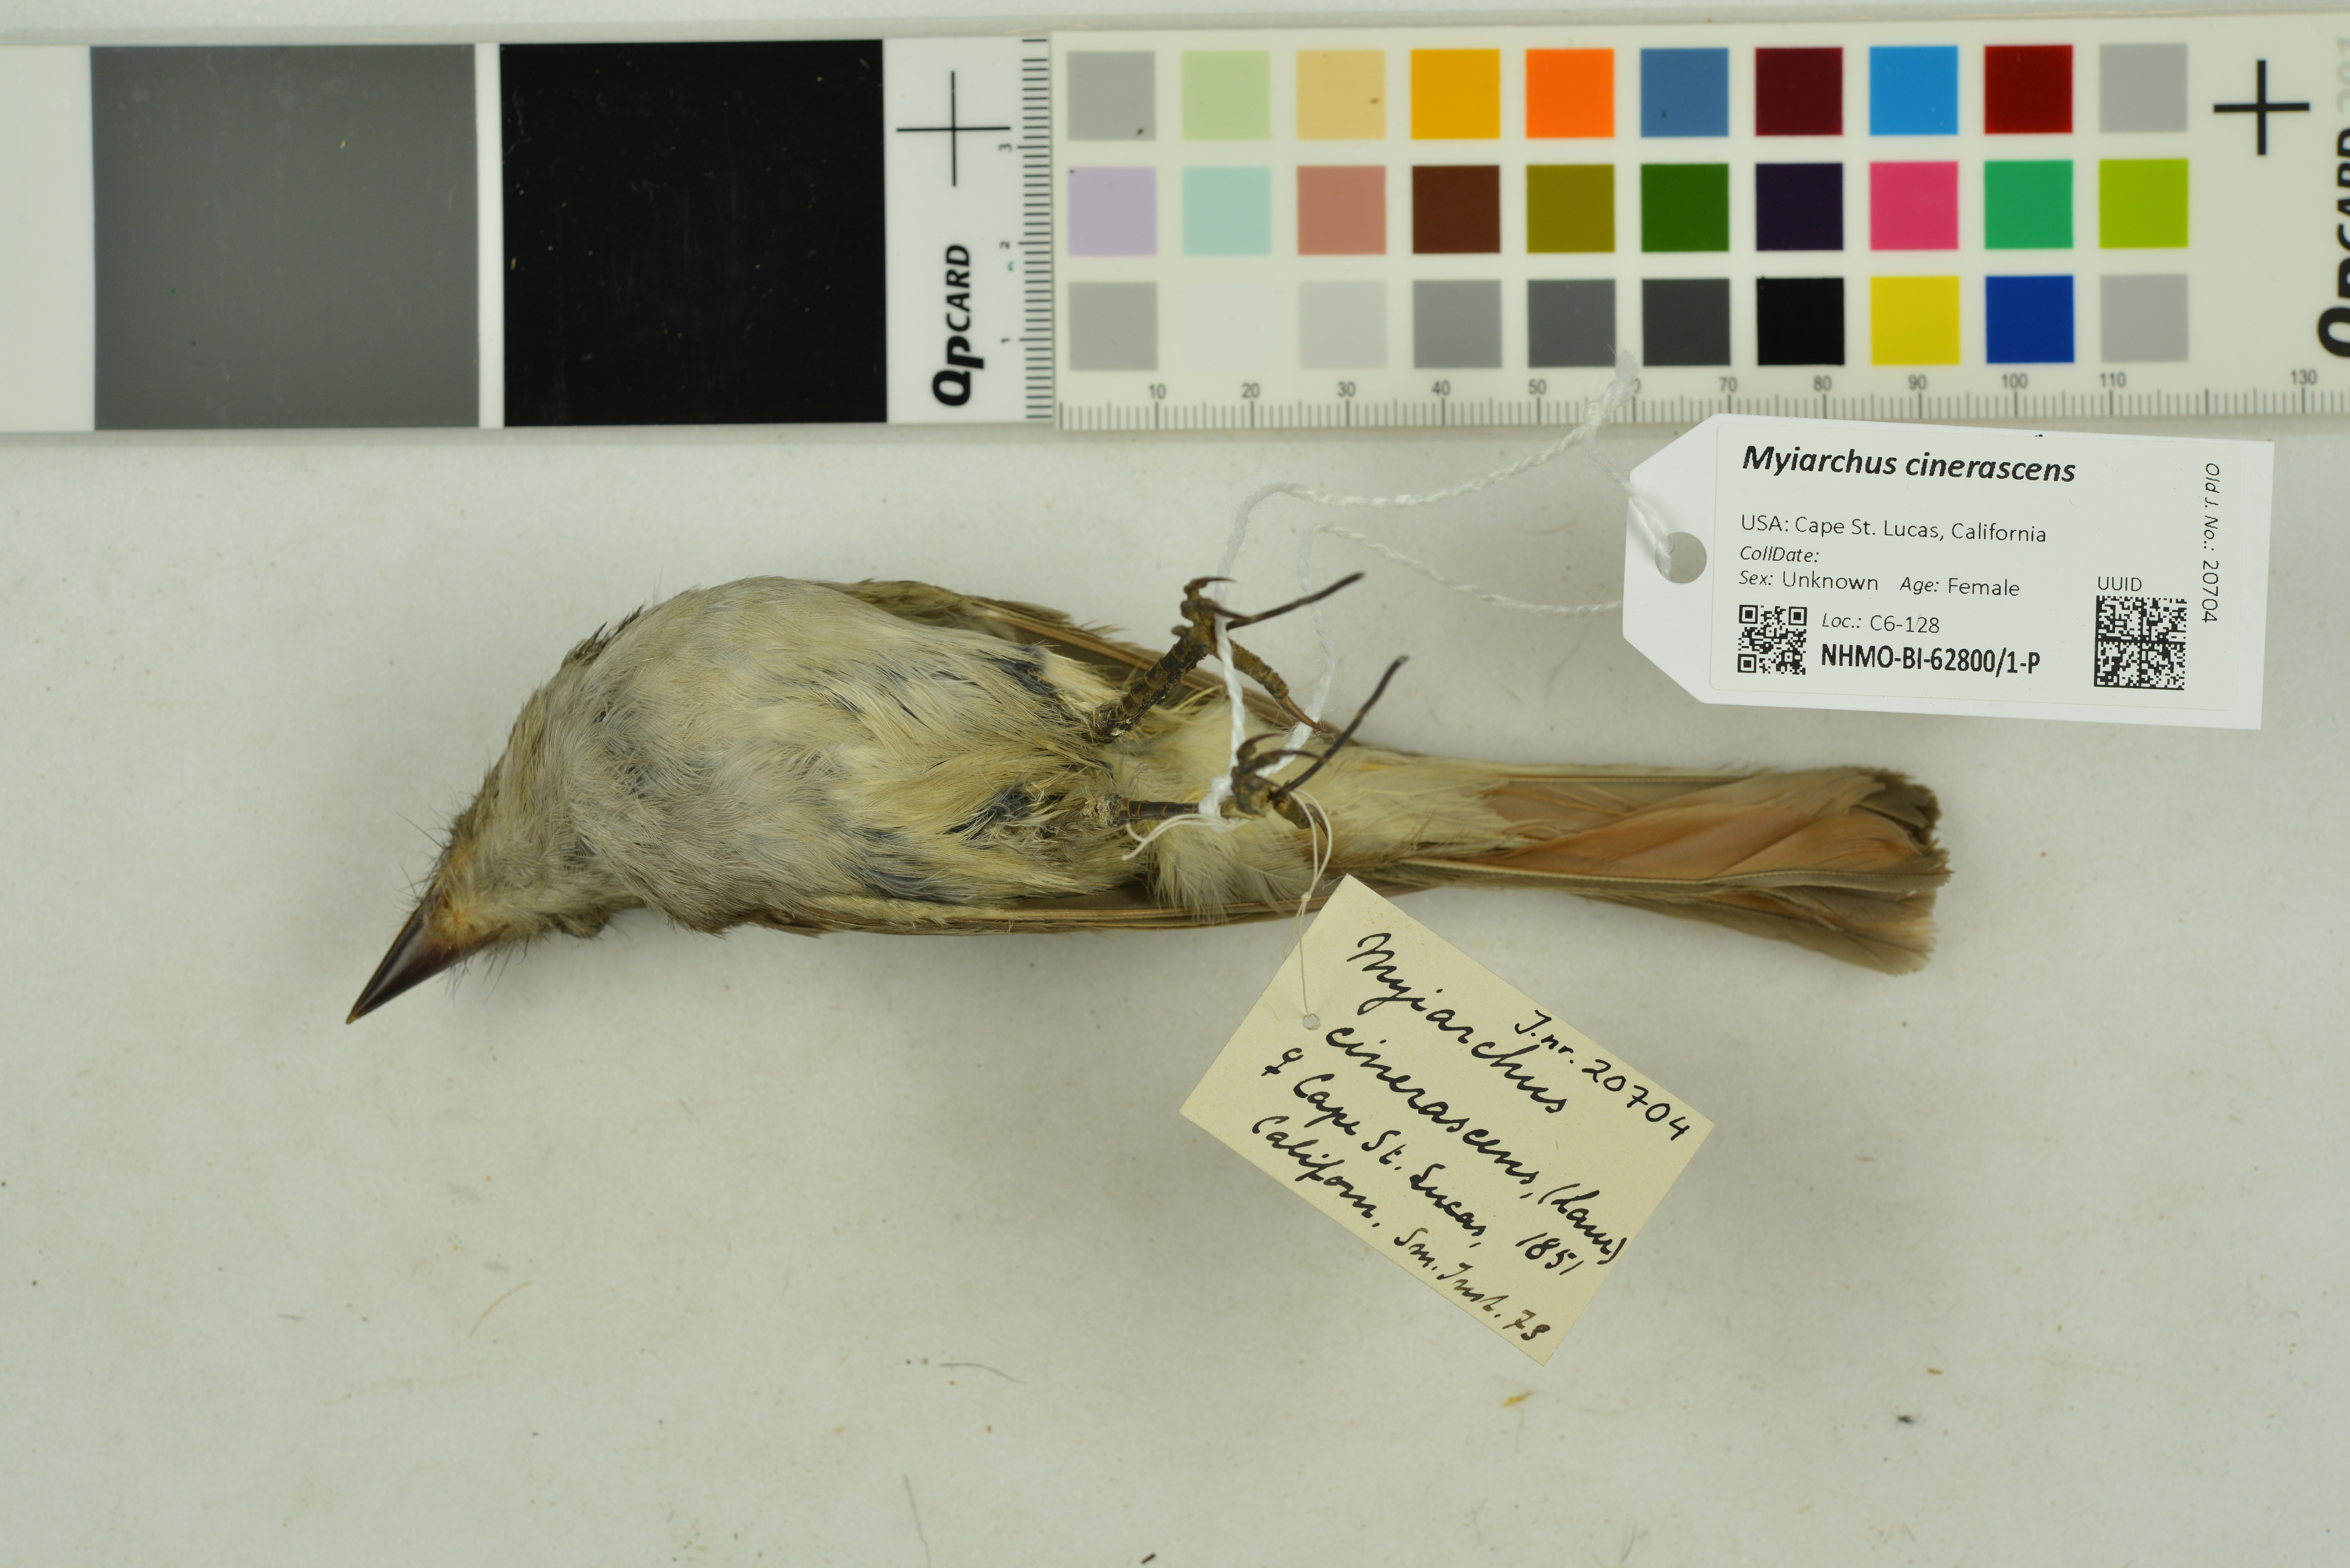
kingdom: Animalia
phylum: Chordata
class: Aves
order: Passeriformes
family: Tyrannidae
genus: Myiarchus
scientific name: Myiarchus cinerascens
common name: Ash-throated flycatcher
